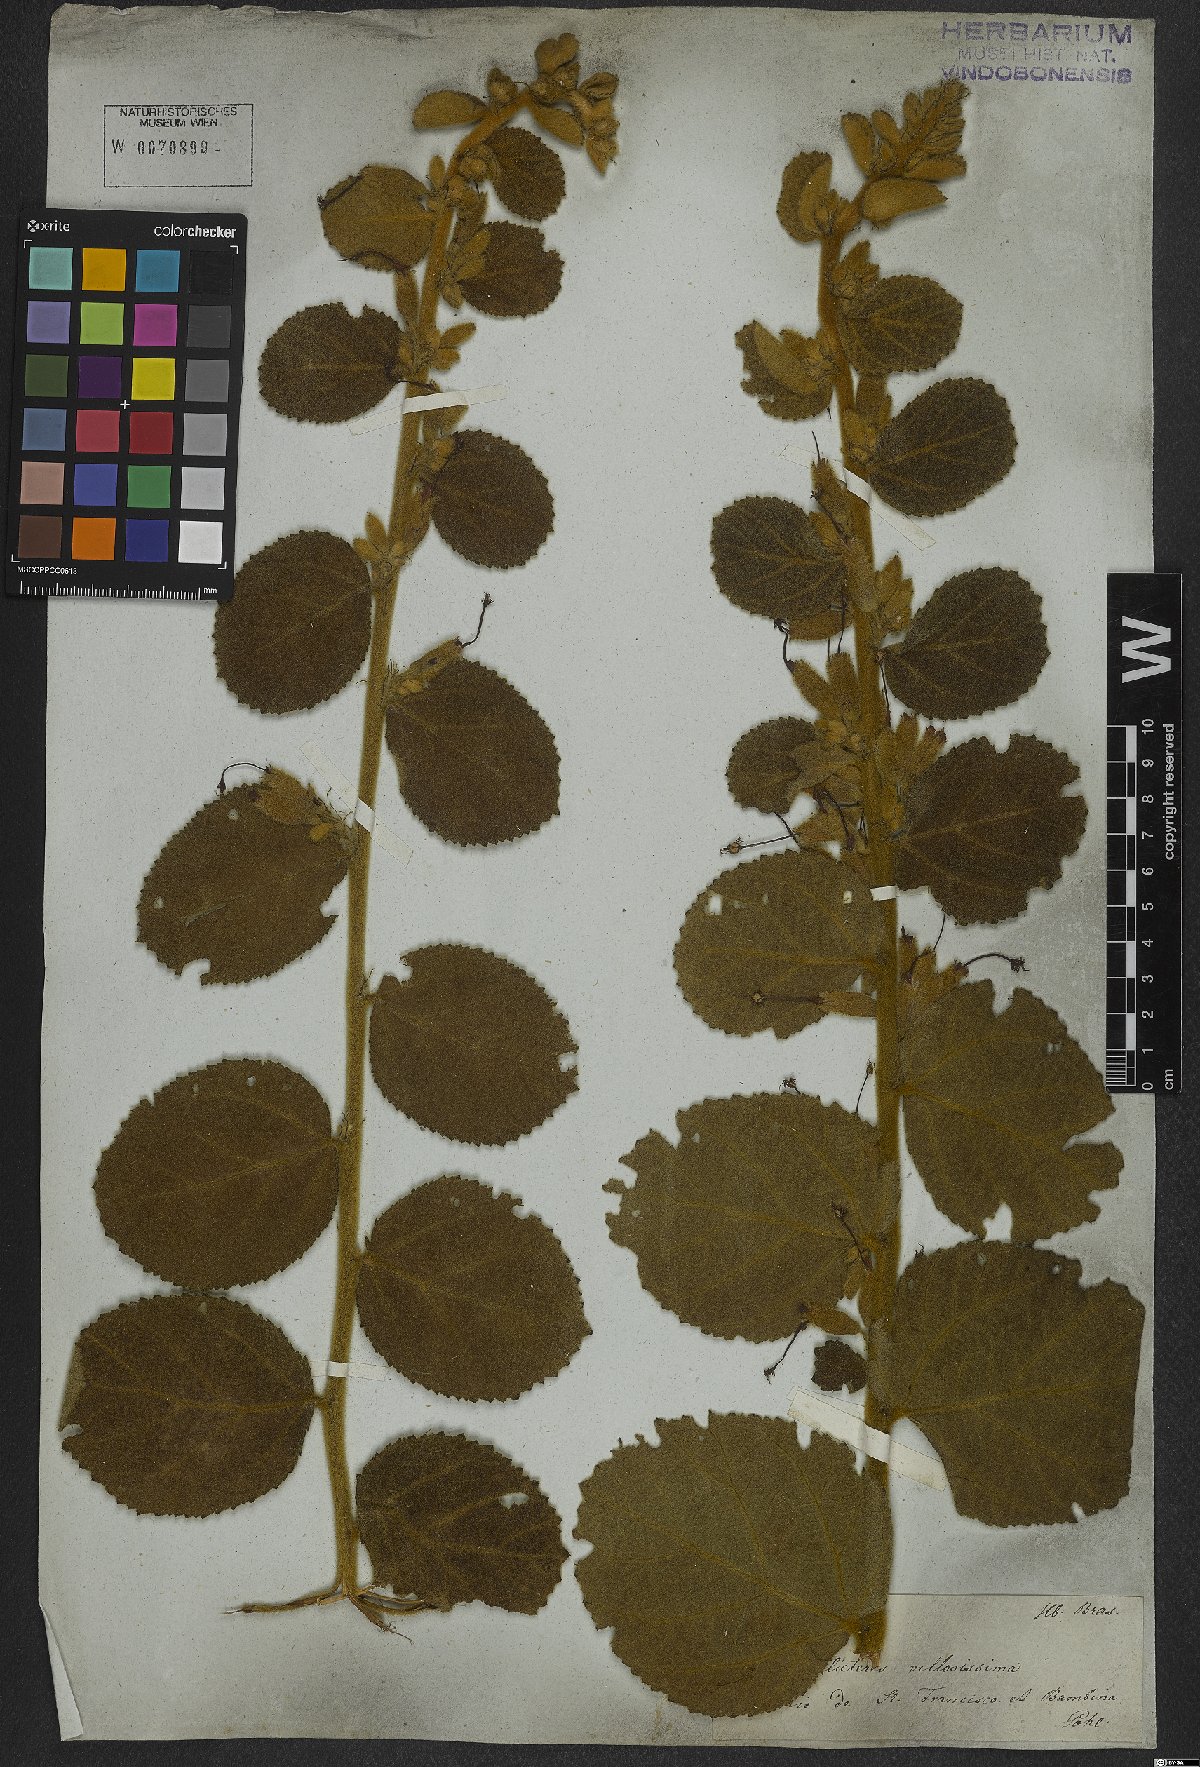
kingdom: Plantae
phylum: Tracheophyta
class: Magnoliopsida
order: Malvales
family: Malvaceae
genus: Helicteres
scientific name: Helicteres sacarolha
